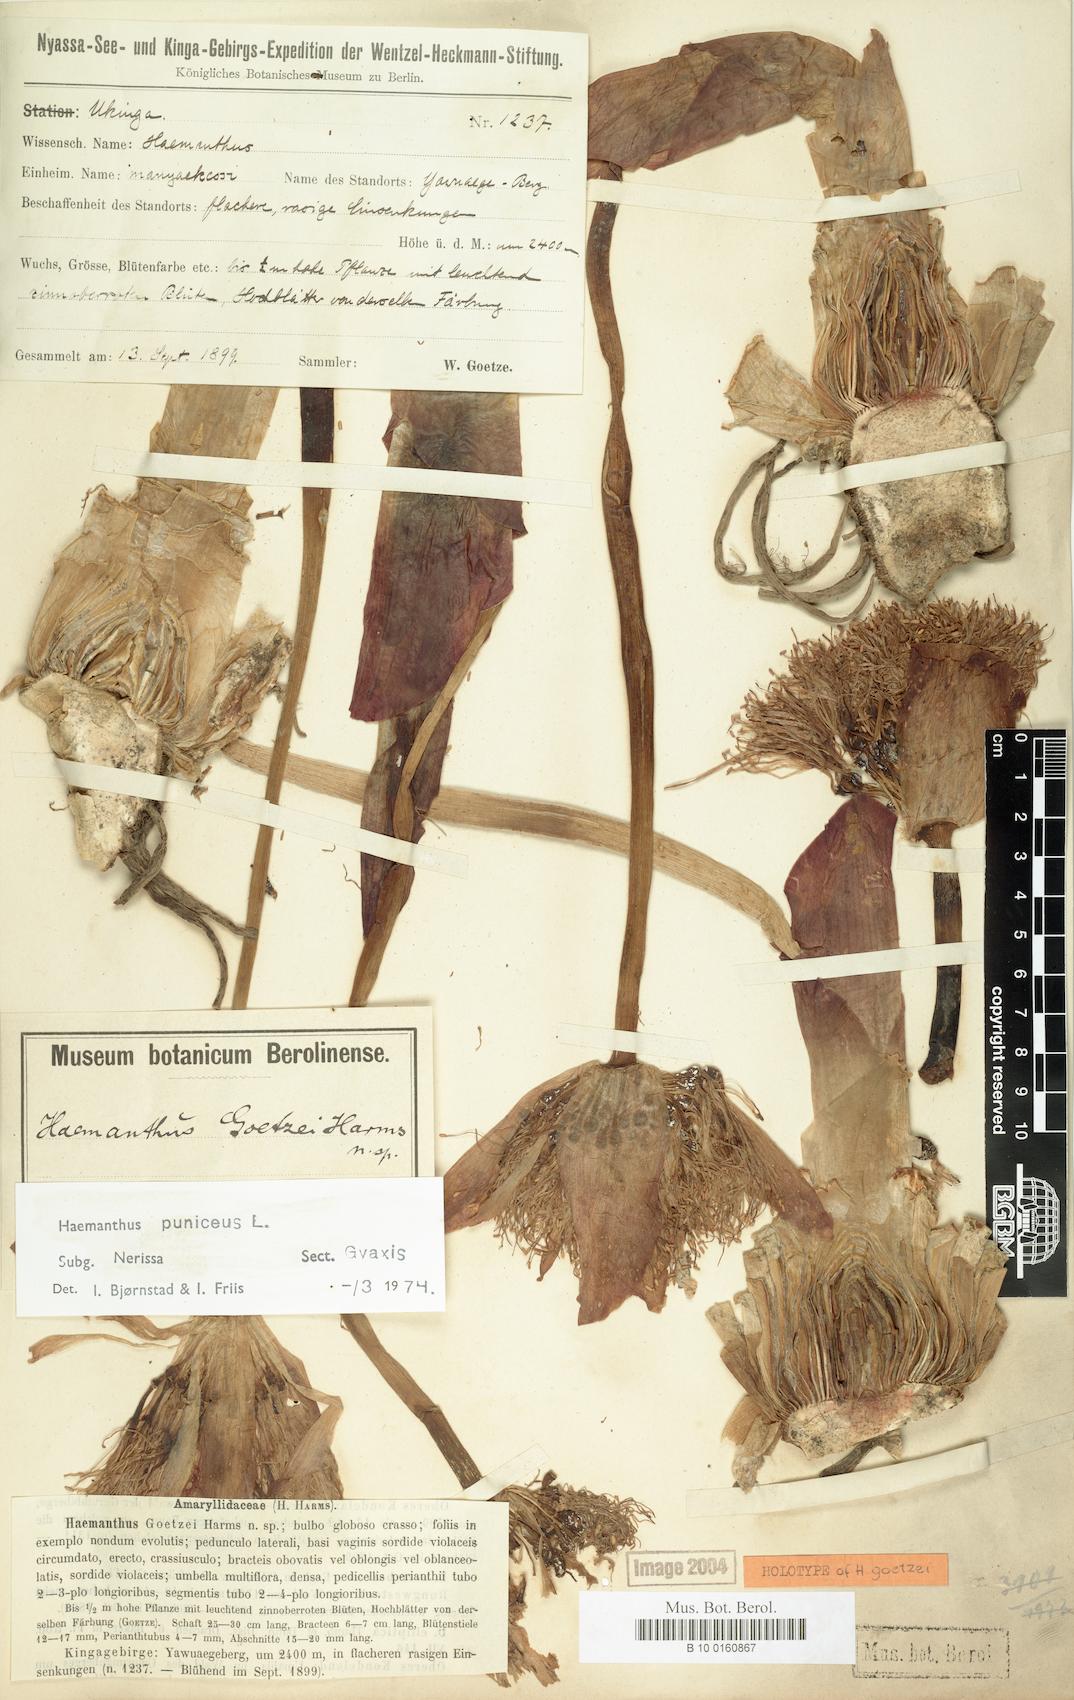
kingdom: Plantae
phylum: Tracheophyta
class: Liliopsida
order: Asparagales
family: Amaryllidaceae
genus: Scadoxus
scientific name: Scadoxus puniceus
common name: Royal-paintbrush
